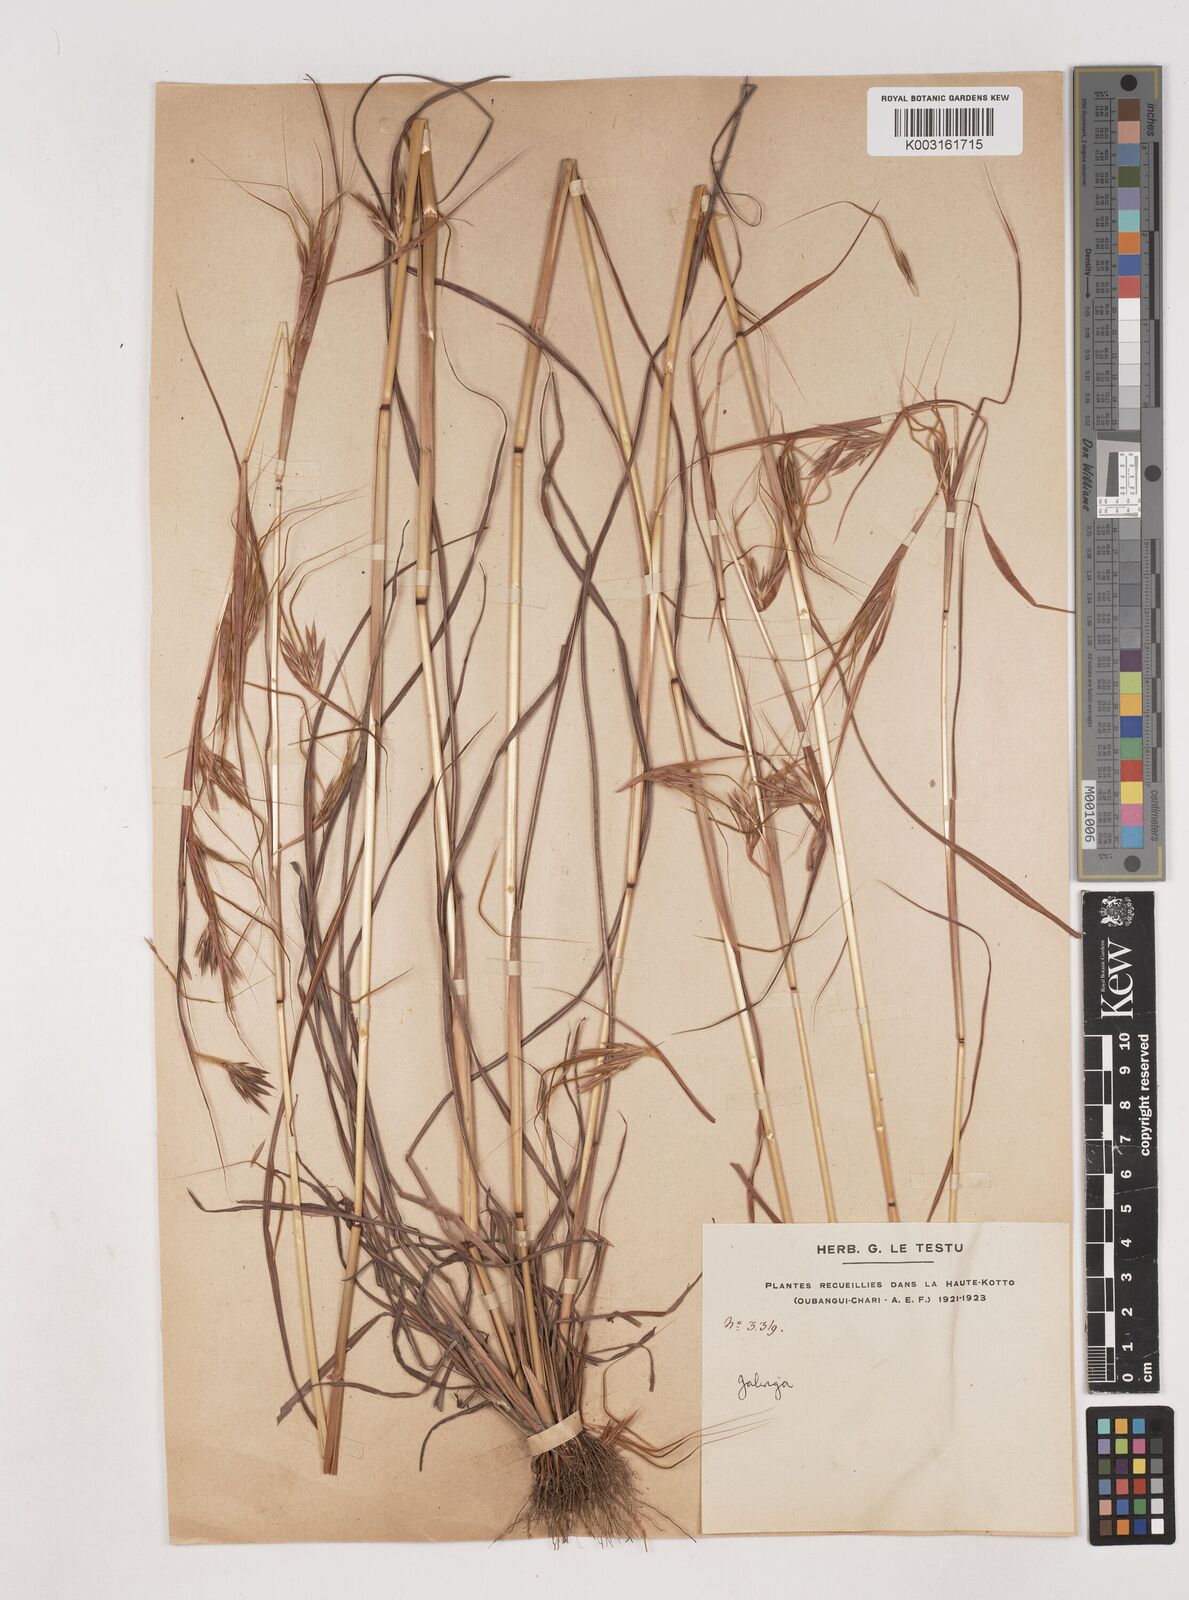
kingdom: Plantae
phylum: Tracheophyta
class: Liliopsida
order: Poales
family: Poaceae
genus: Hyparrhenia
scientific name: Hyparrhenia bagirmica
